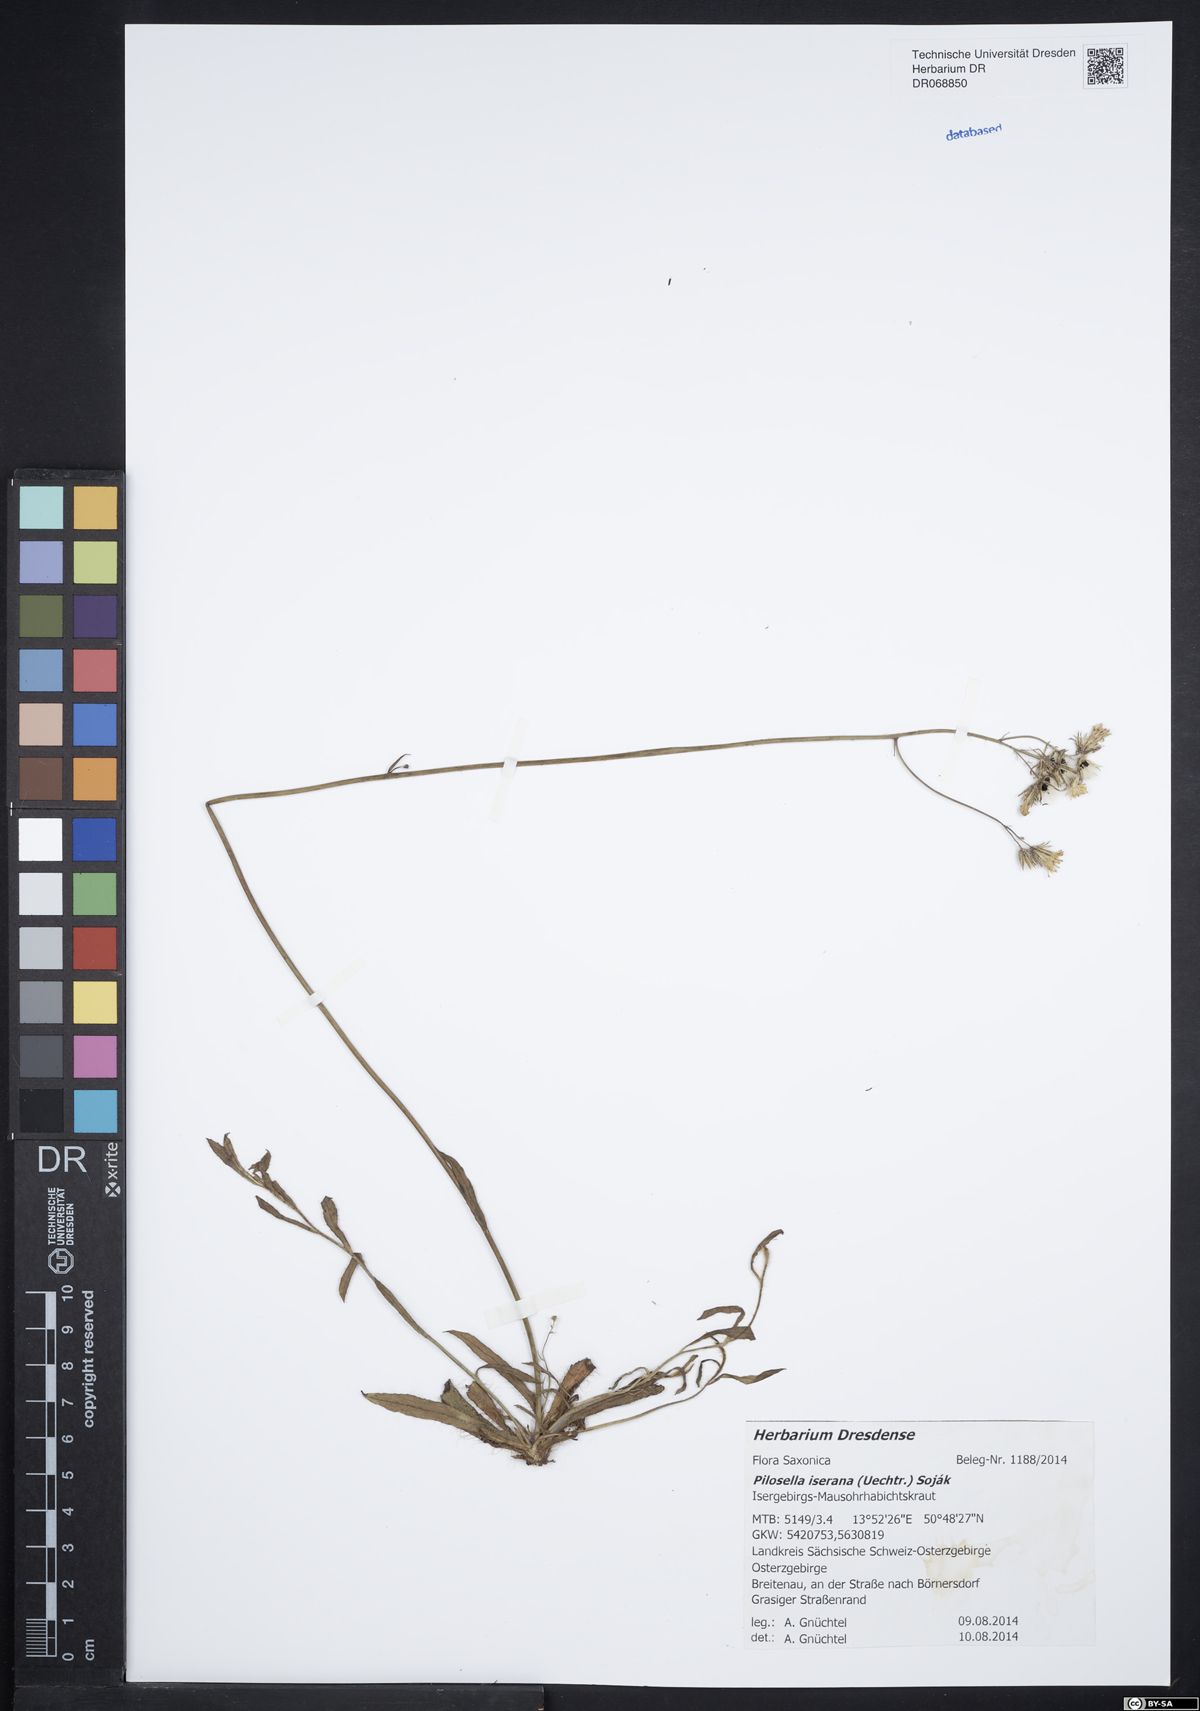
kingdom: Plantae
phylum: Tracheophyta
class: Magnoliopsida
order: Asterales
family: Asteraceae
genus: Pilosella
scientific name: Pilosella iserana
